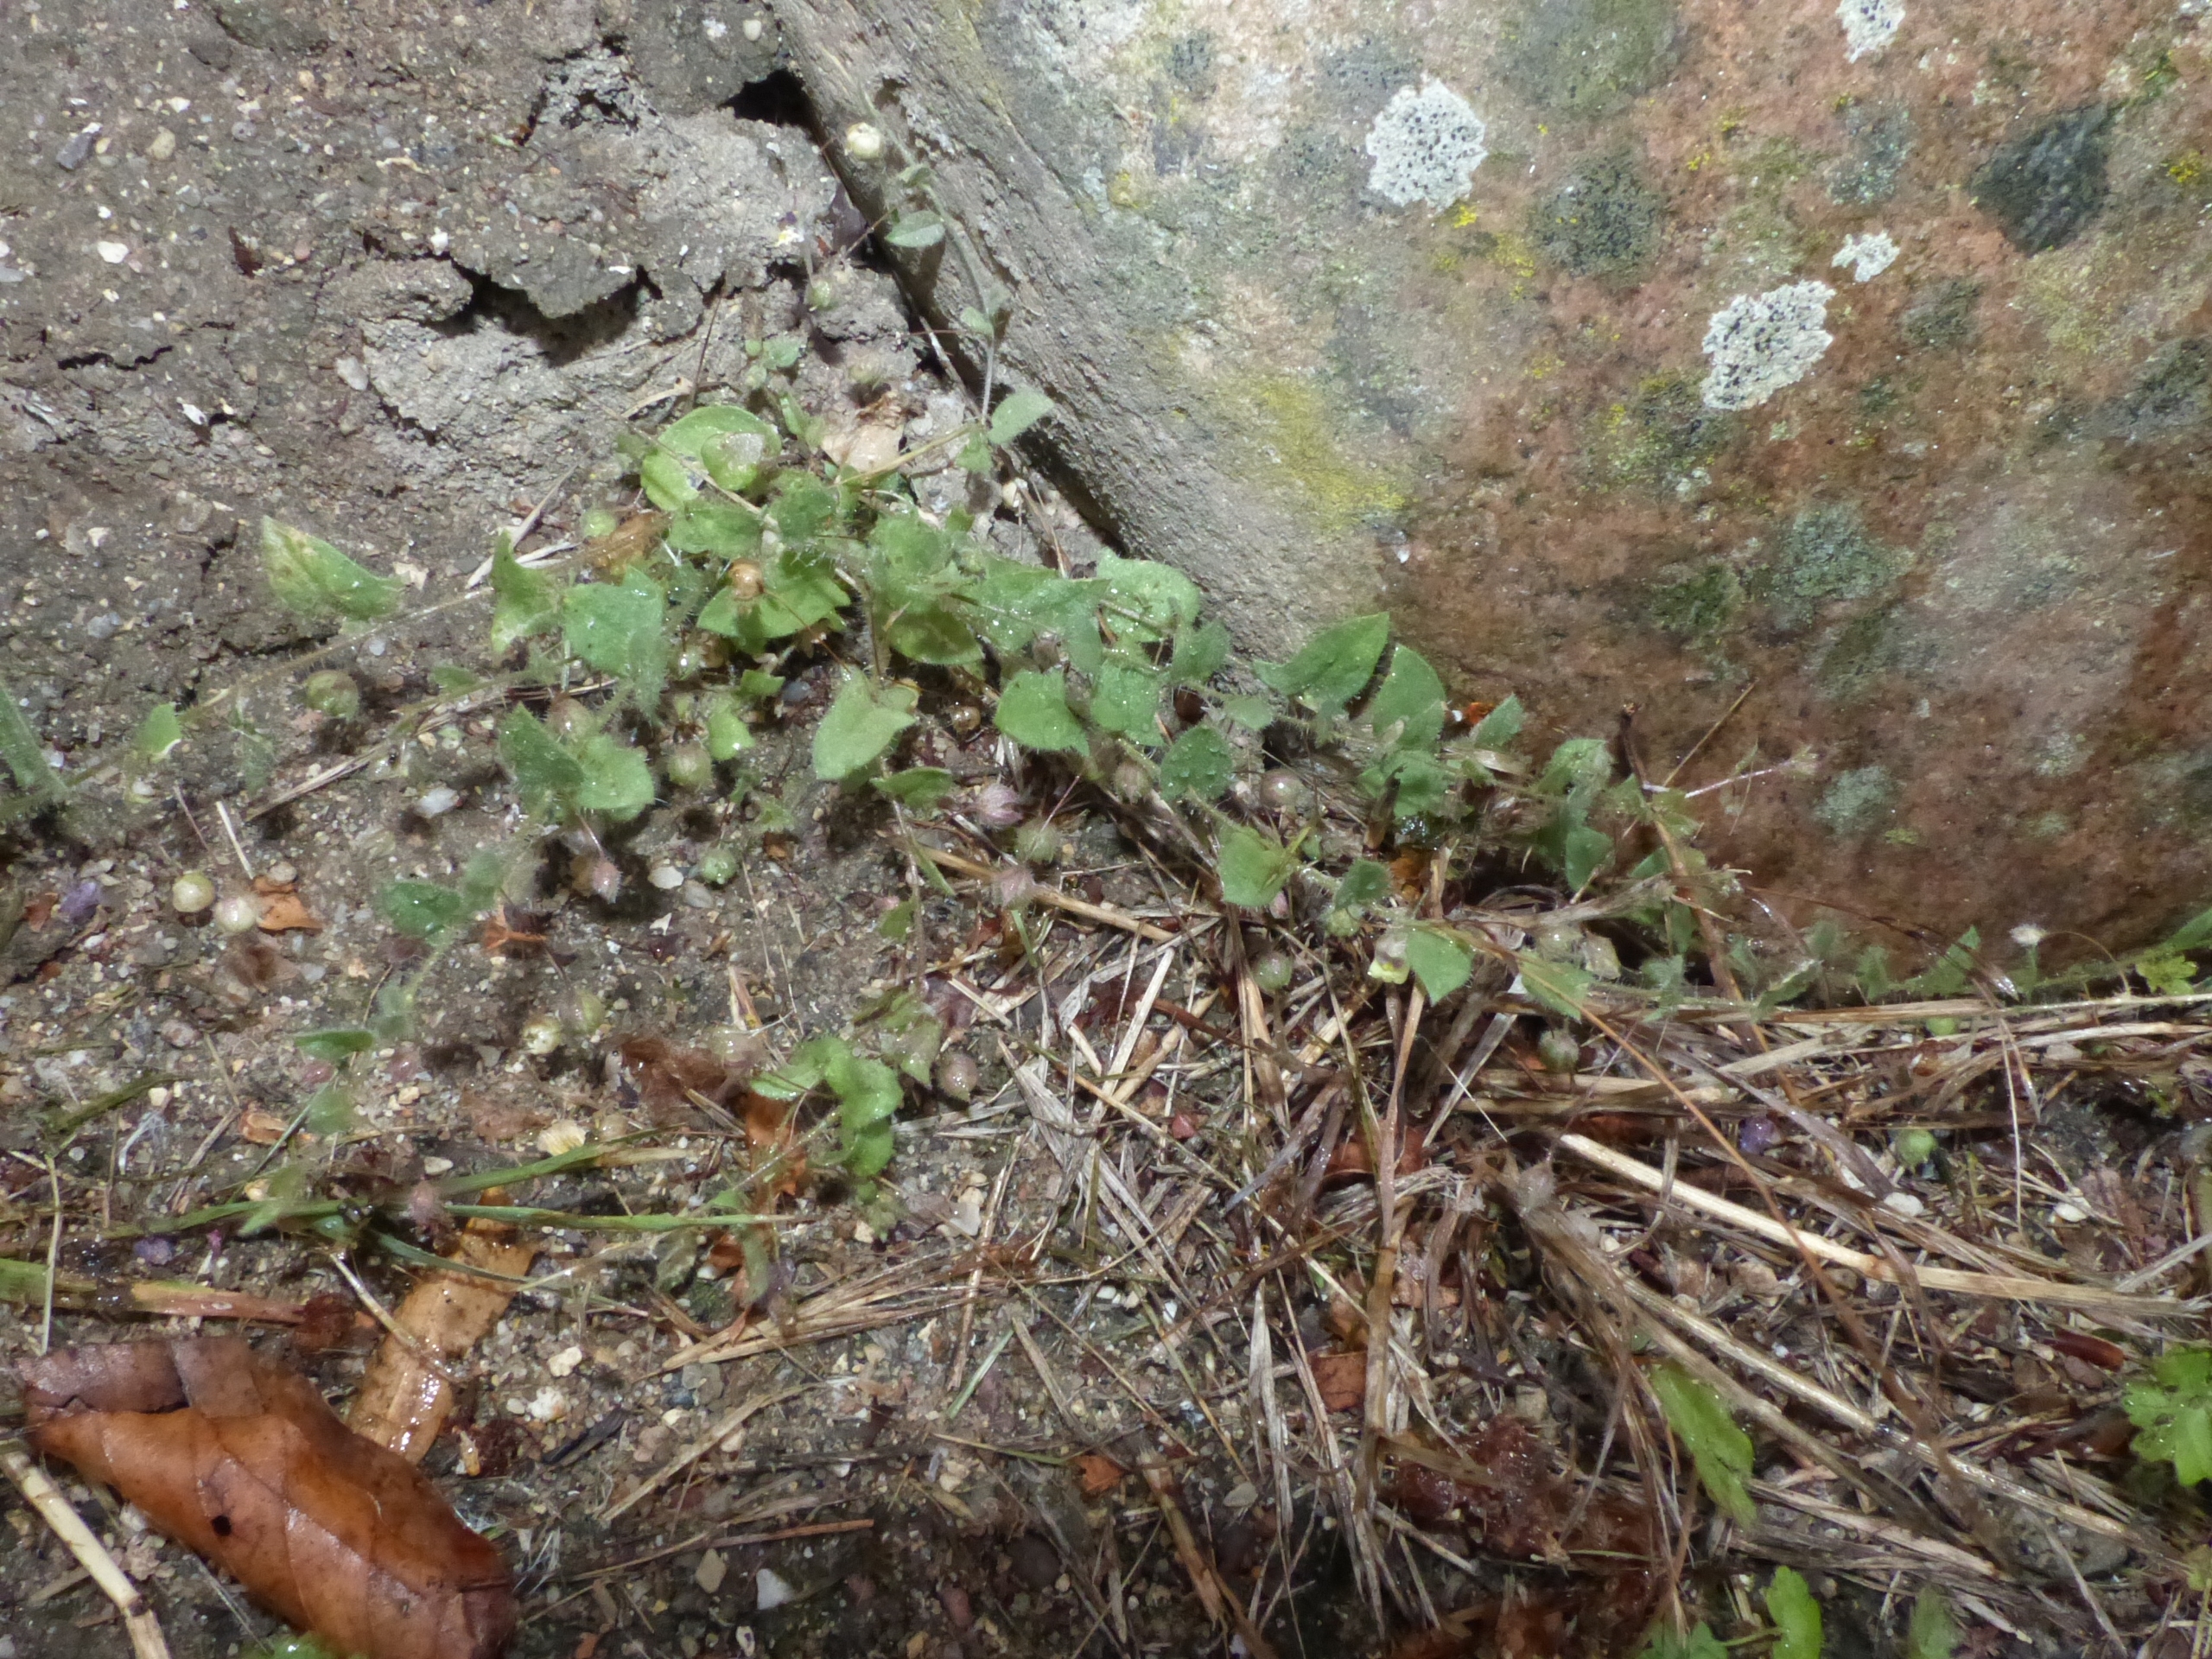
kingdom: Plantae
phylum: Tracheophyta
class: Magnoliopsida
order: Lamiales
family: Plantaginaceae
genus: Kickxia
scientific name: Kickxia elatine
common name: Spydbladet torskemund
